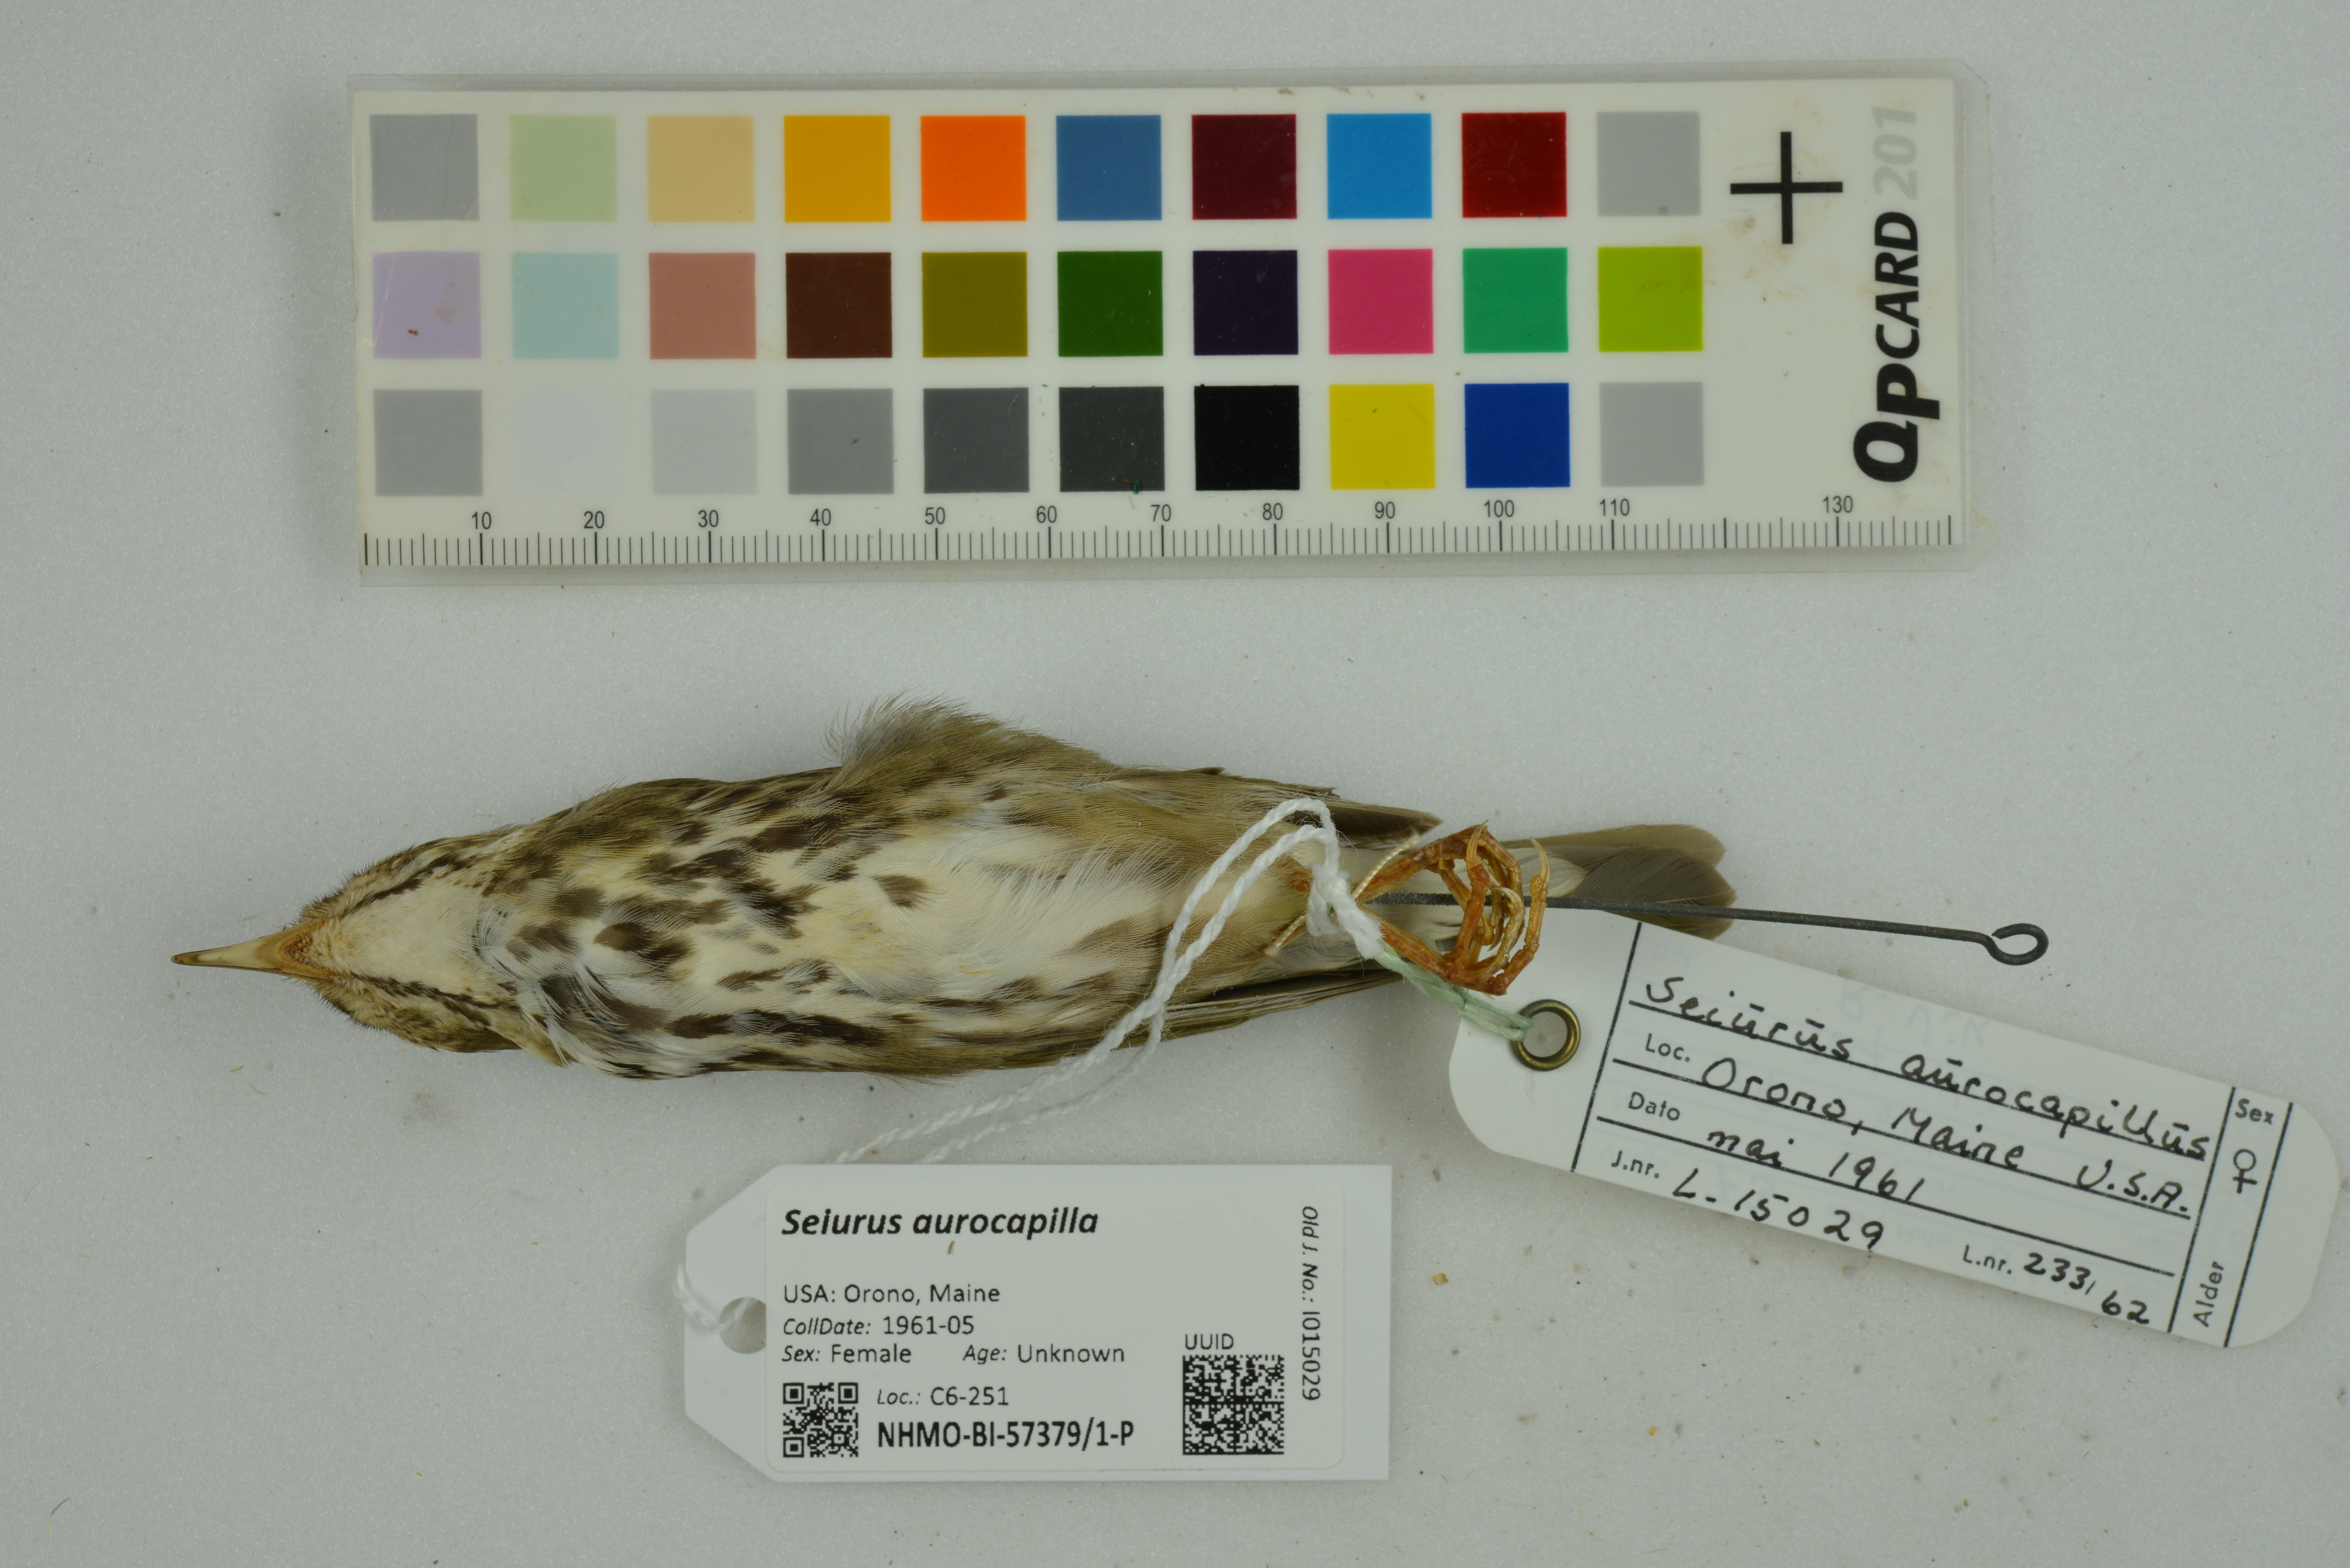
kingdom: Animalia
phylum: Chordata
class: Aves
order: Passeriformes
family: Parulidae
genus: Seiurus
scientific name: Seiurus aurocapilla
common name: Ovenbird
